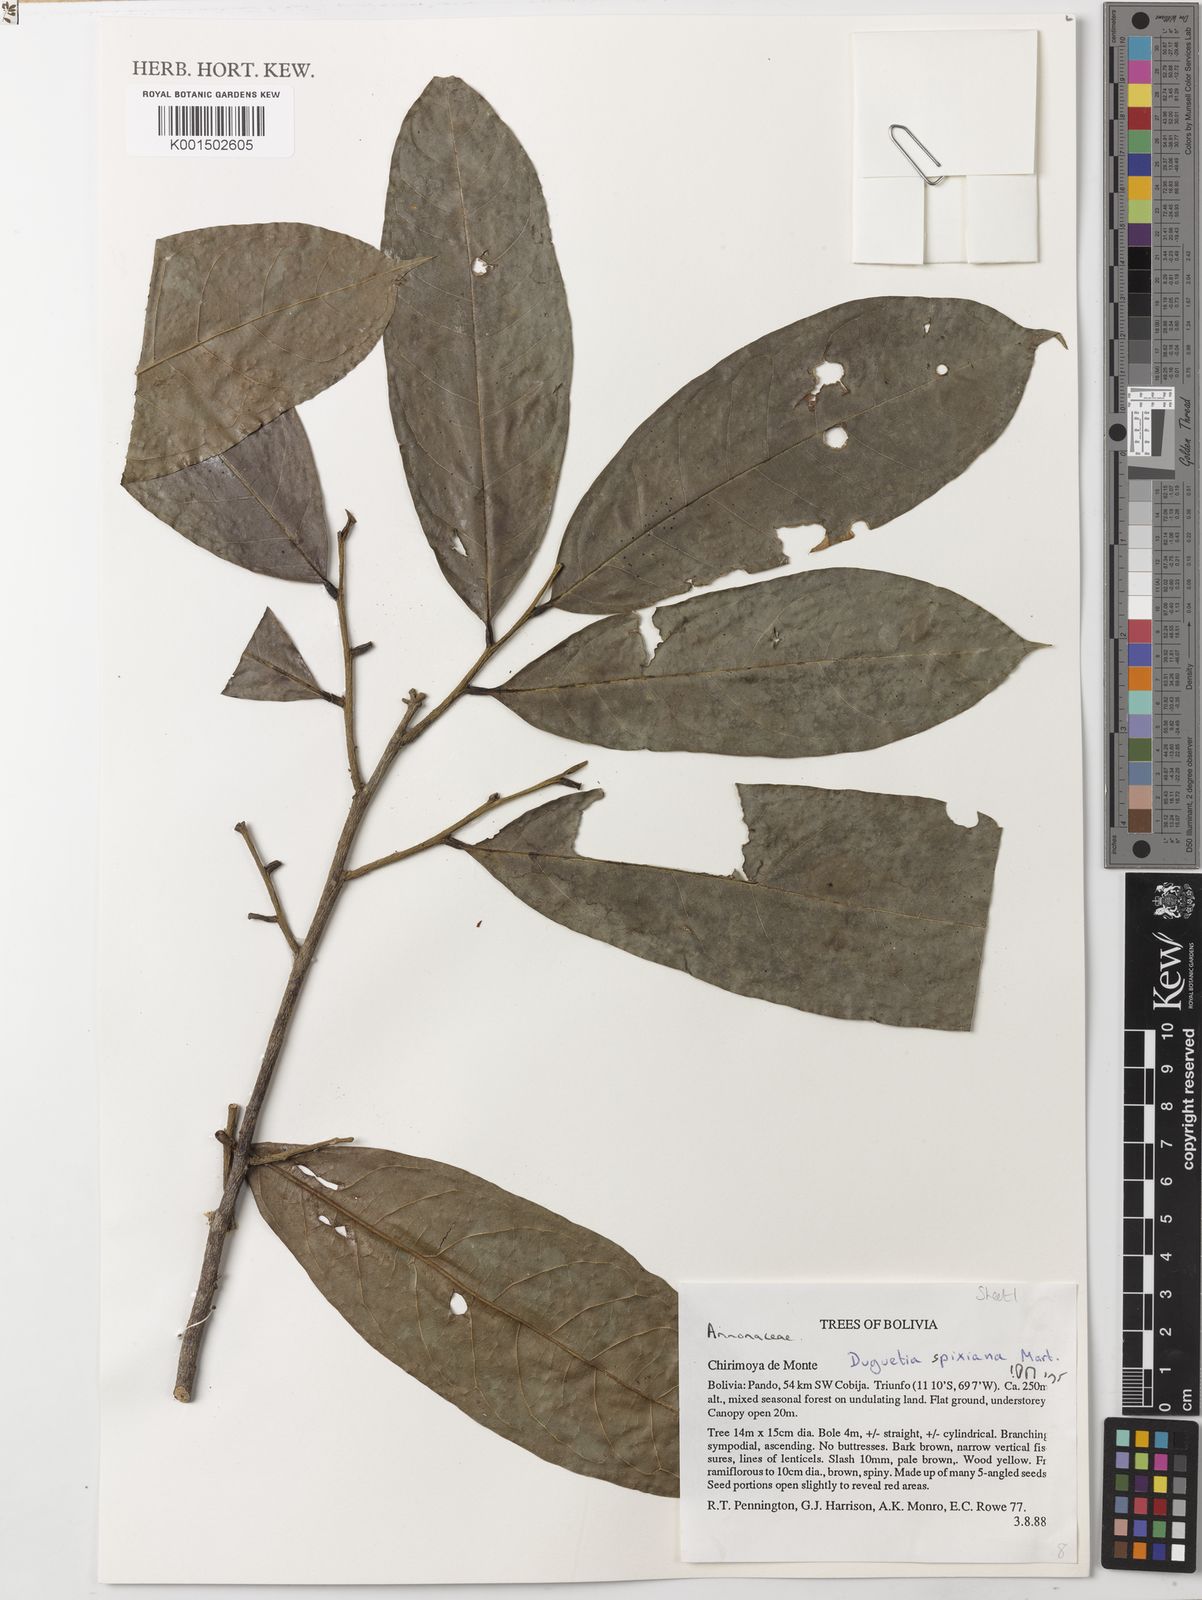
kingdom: Plantae
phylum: Tracheophyta
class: Magnoliopsida
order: Magnoliales
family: Annonaceae
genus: Duguetia
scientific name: Duguetia spixiana
